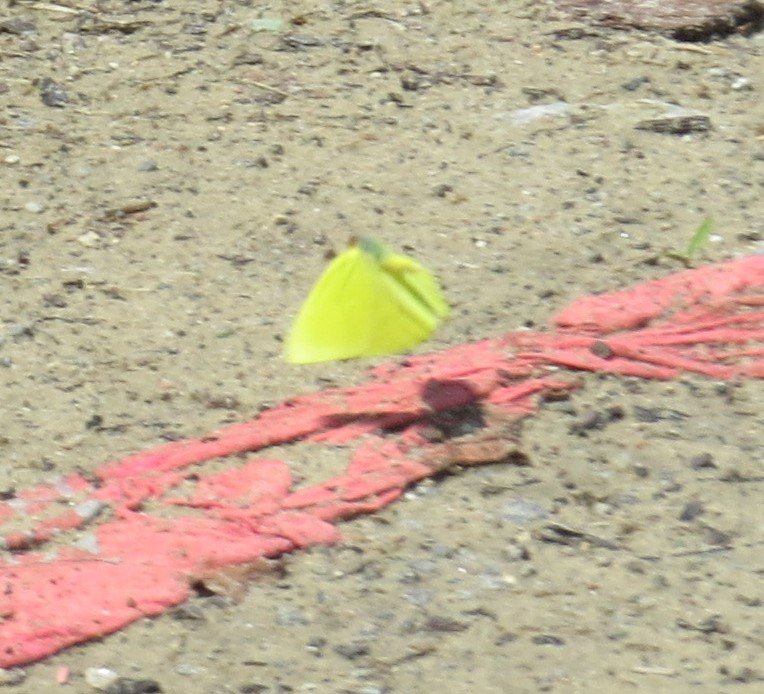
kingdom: Animalia
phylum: Arthropoda
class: Insecta
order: Lepidoptera
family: Pieridae
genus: Phoebis
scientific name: Phoebis sennae
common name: Cloudless Sulphur
